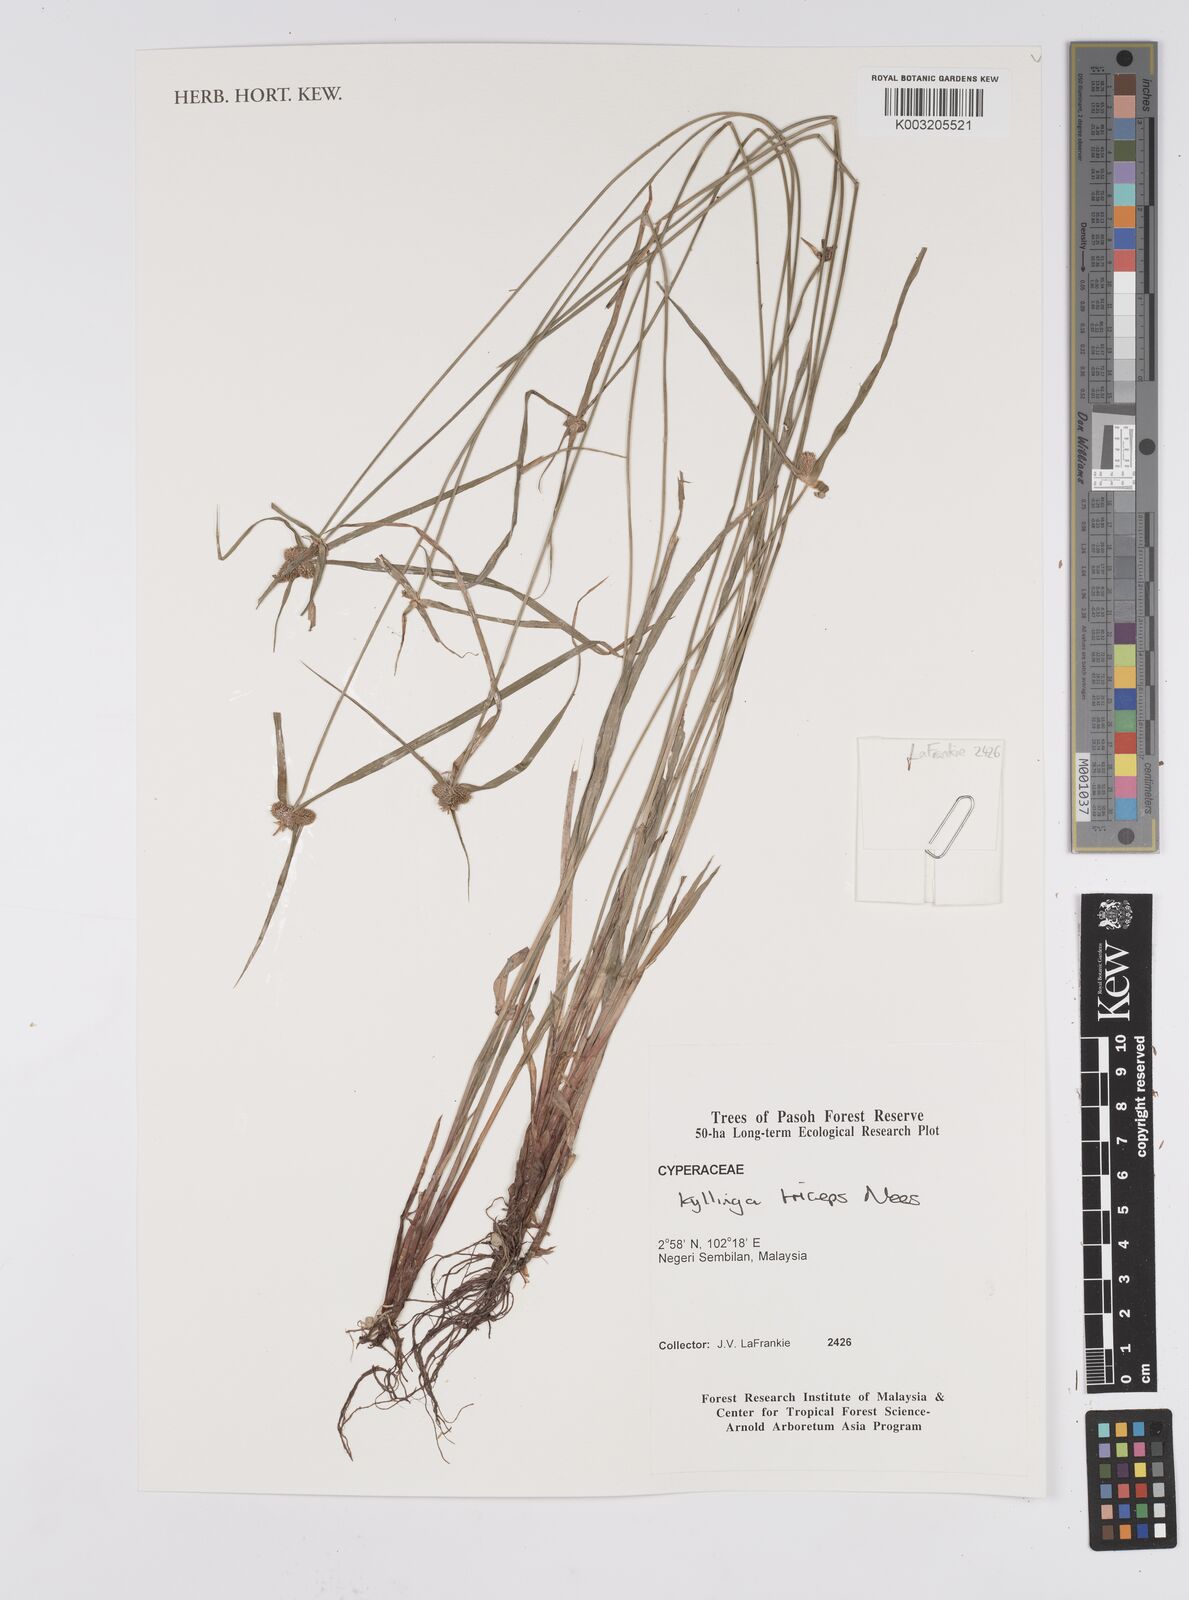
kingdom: Plantae
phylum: Tracheophyta
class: Liliopsida
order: Poales
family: Cyperaceae
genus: Cyperus
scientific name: Cyperus
